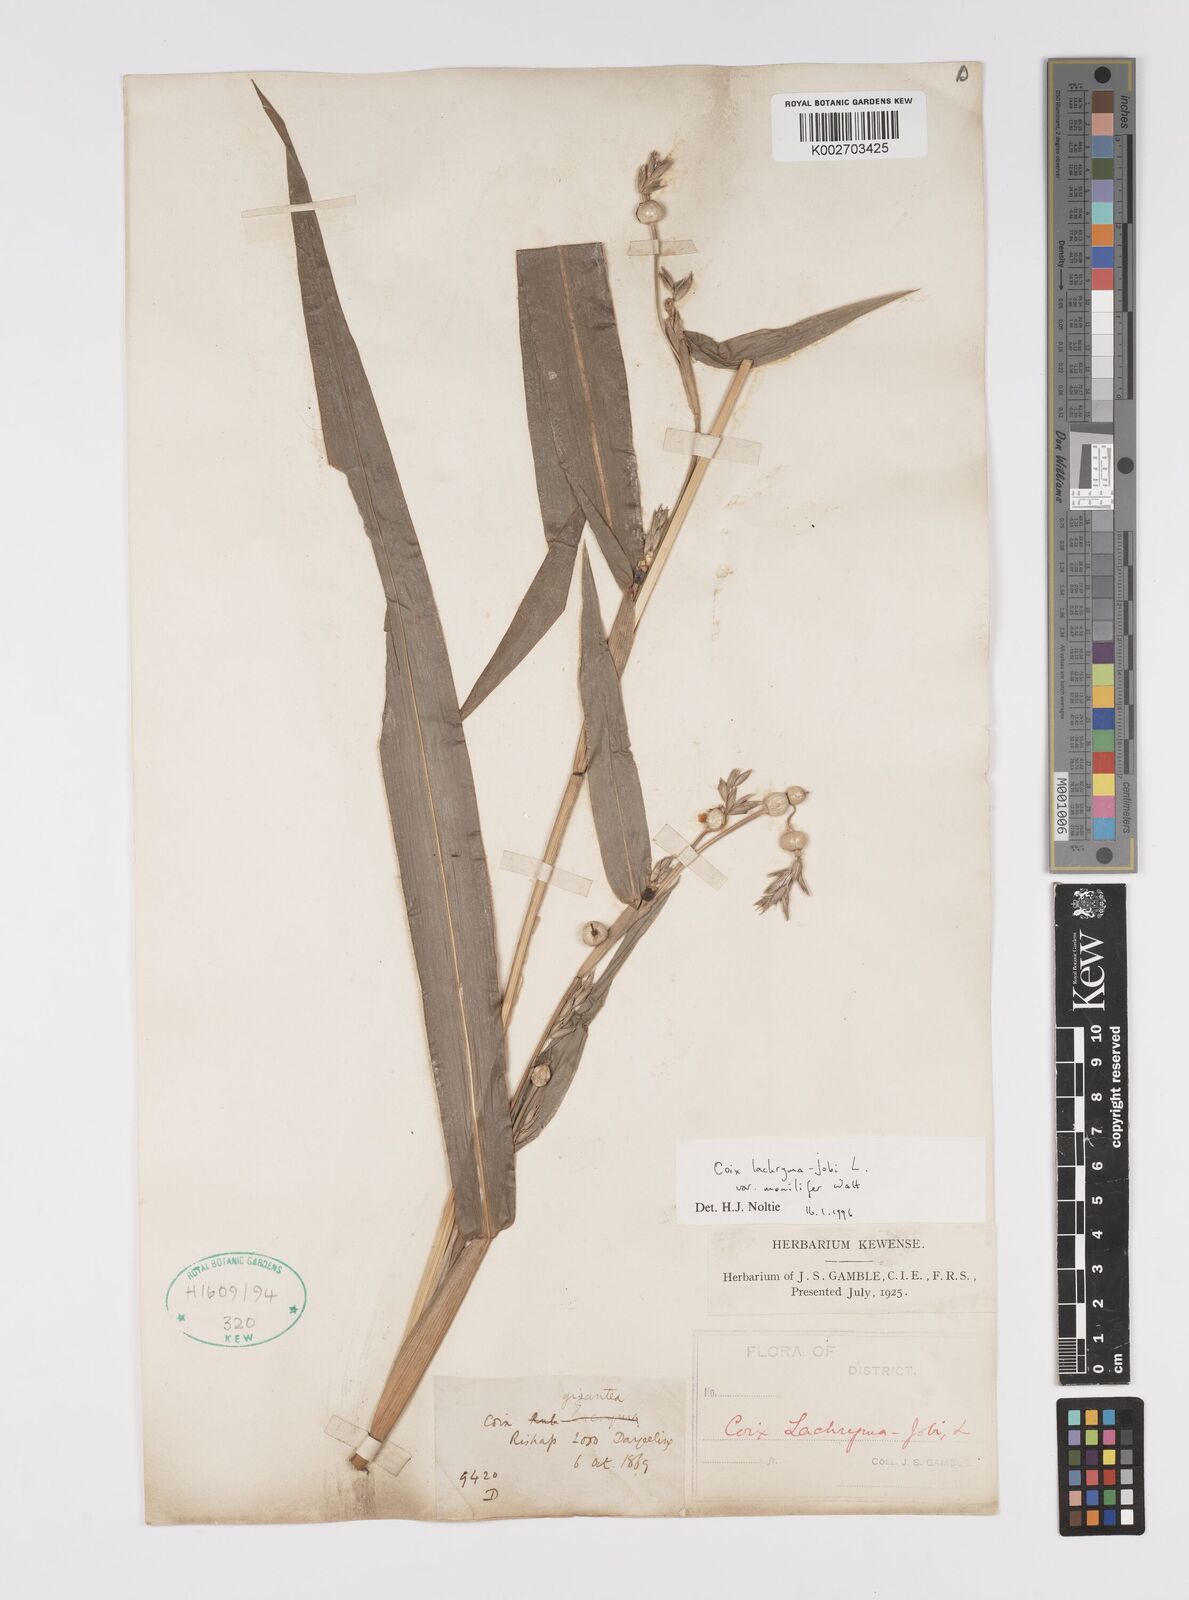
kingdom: Plantae
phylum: Tracheophyta
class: Liliopsida
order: Poales
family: Poaceae
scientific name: Poaceae
